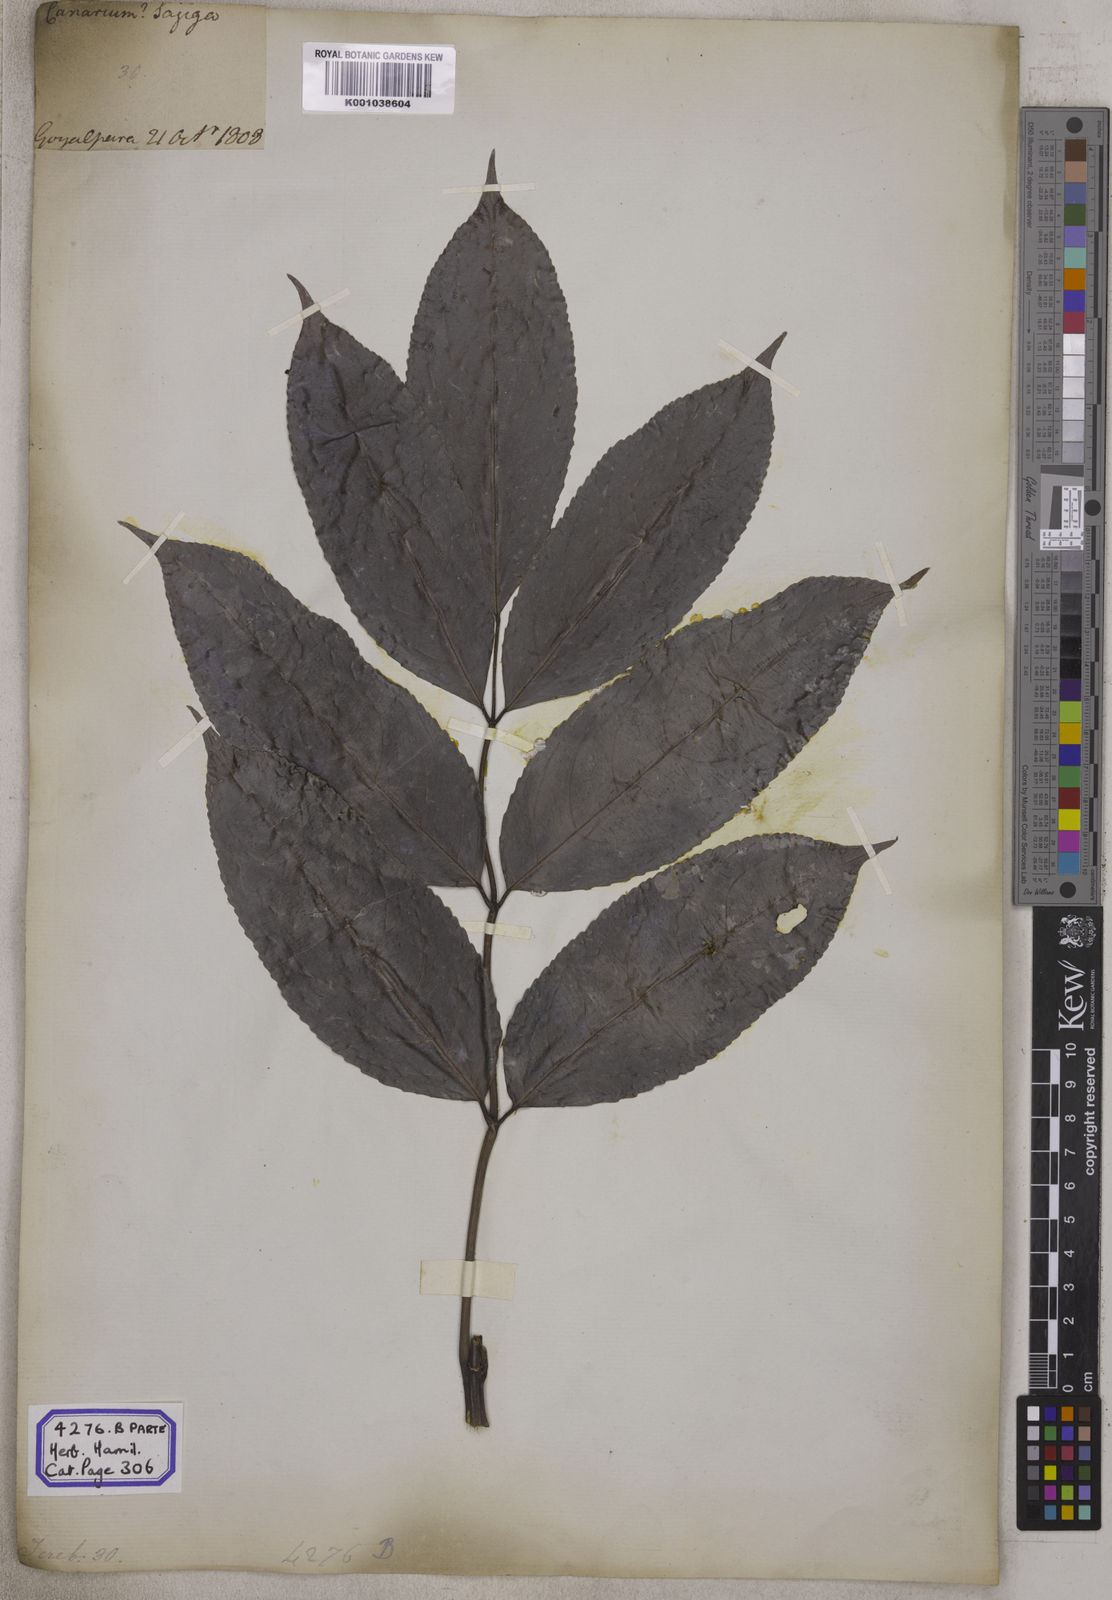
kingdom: Plantae
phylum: Tracheophyta
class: Magnoliopsida
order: Crossosomatales
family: Staphyleaceae
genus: Dalrympelea
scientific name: Dalrympelea pomifera
